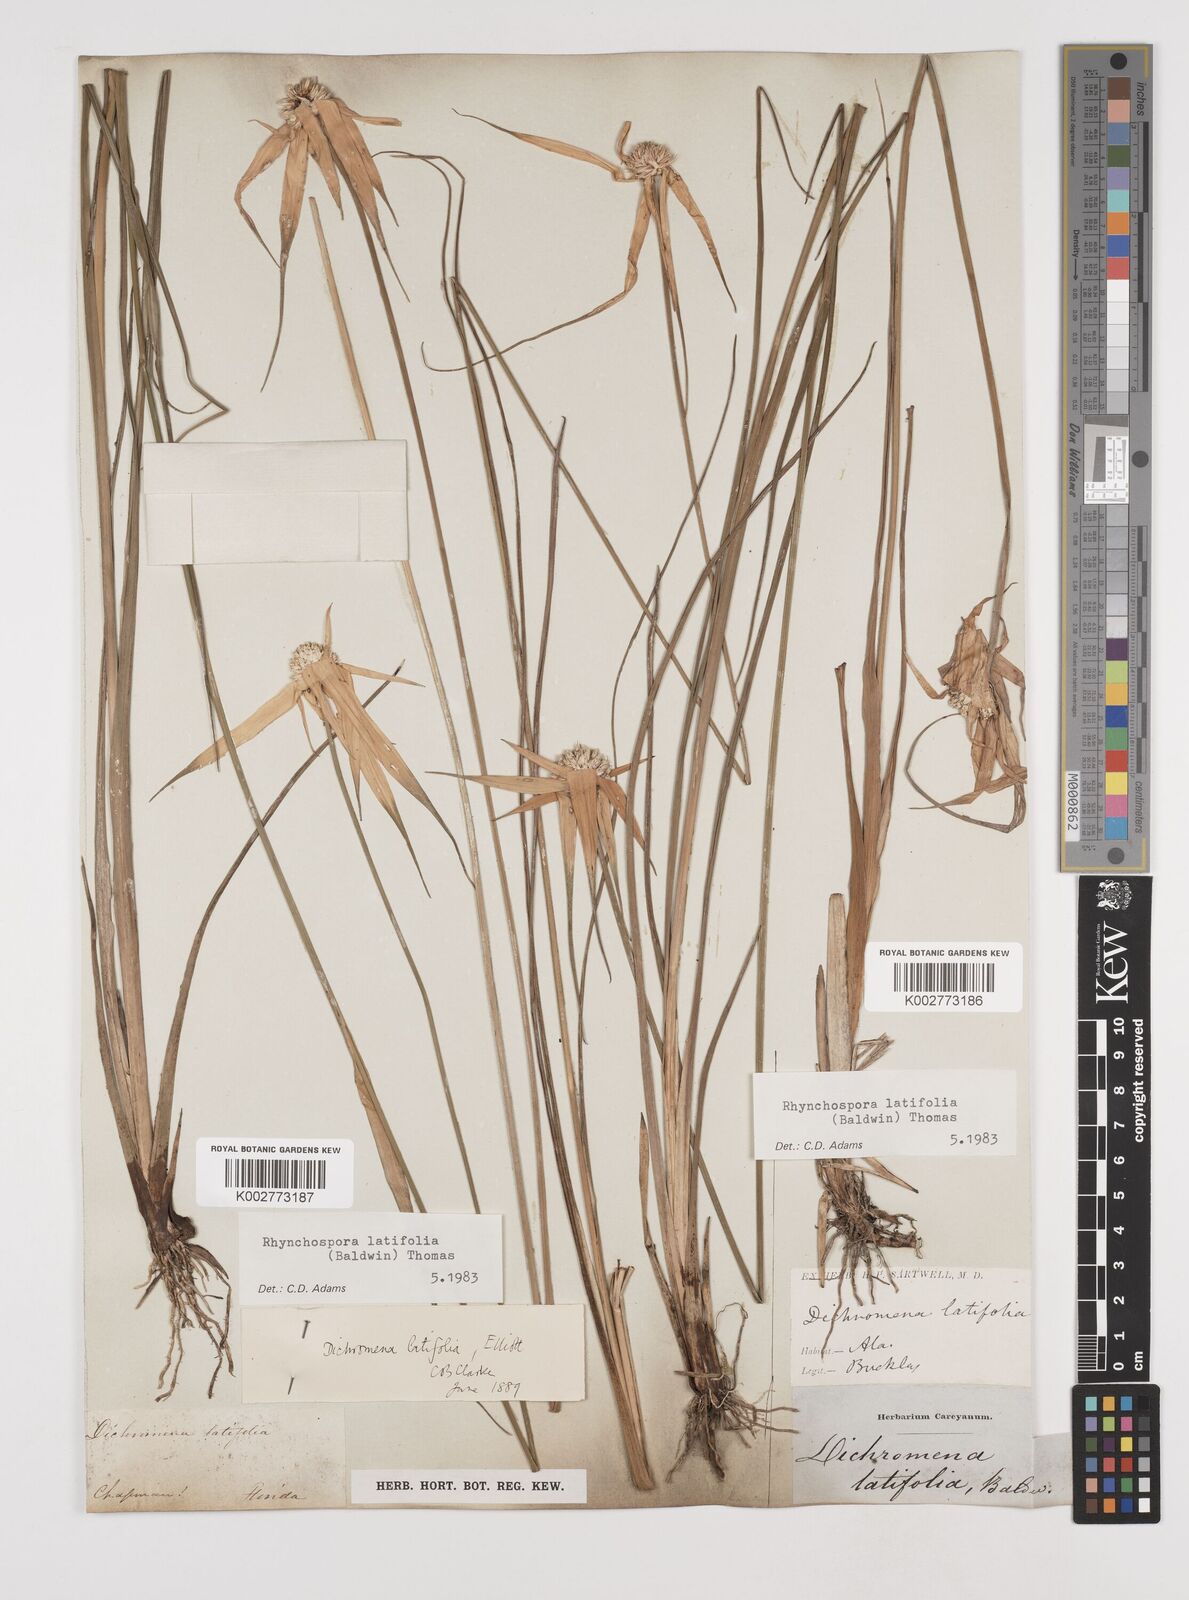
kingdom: Plantae
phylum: Tracheophyta
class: Liliopsida
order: Poales
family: Cyperaceae
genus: Rhynchospora
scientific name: Rhynchospora latifolia
